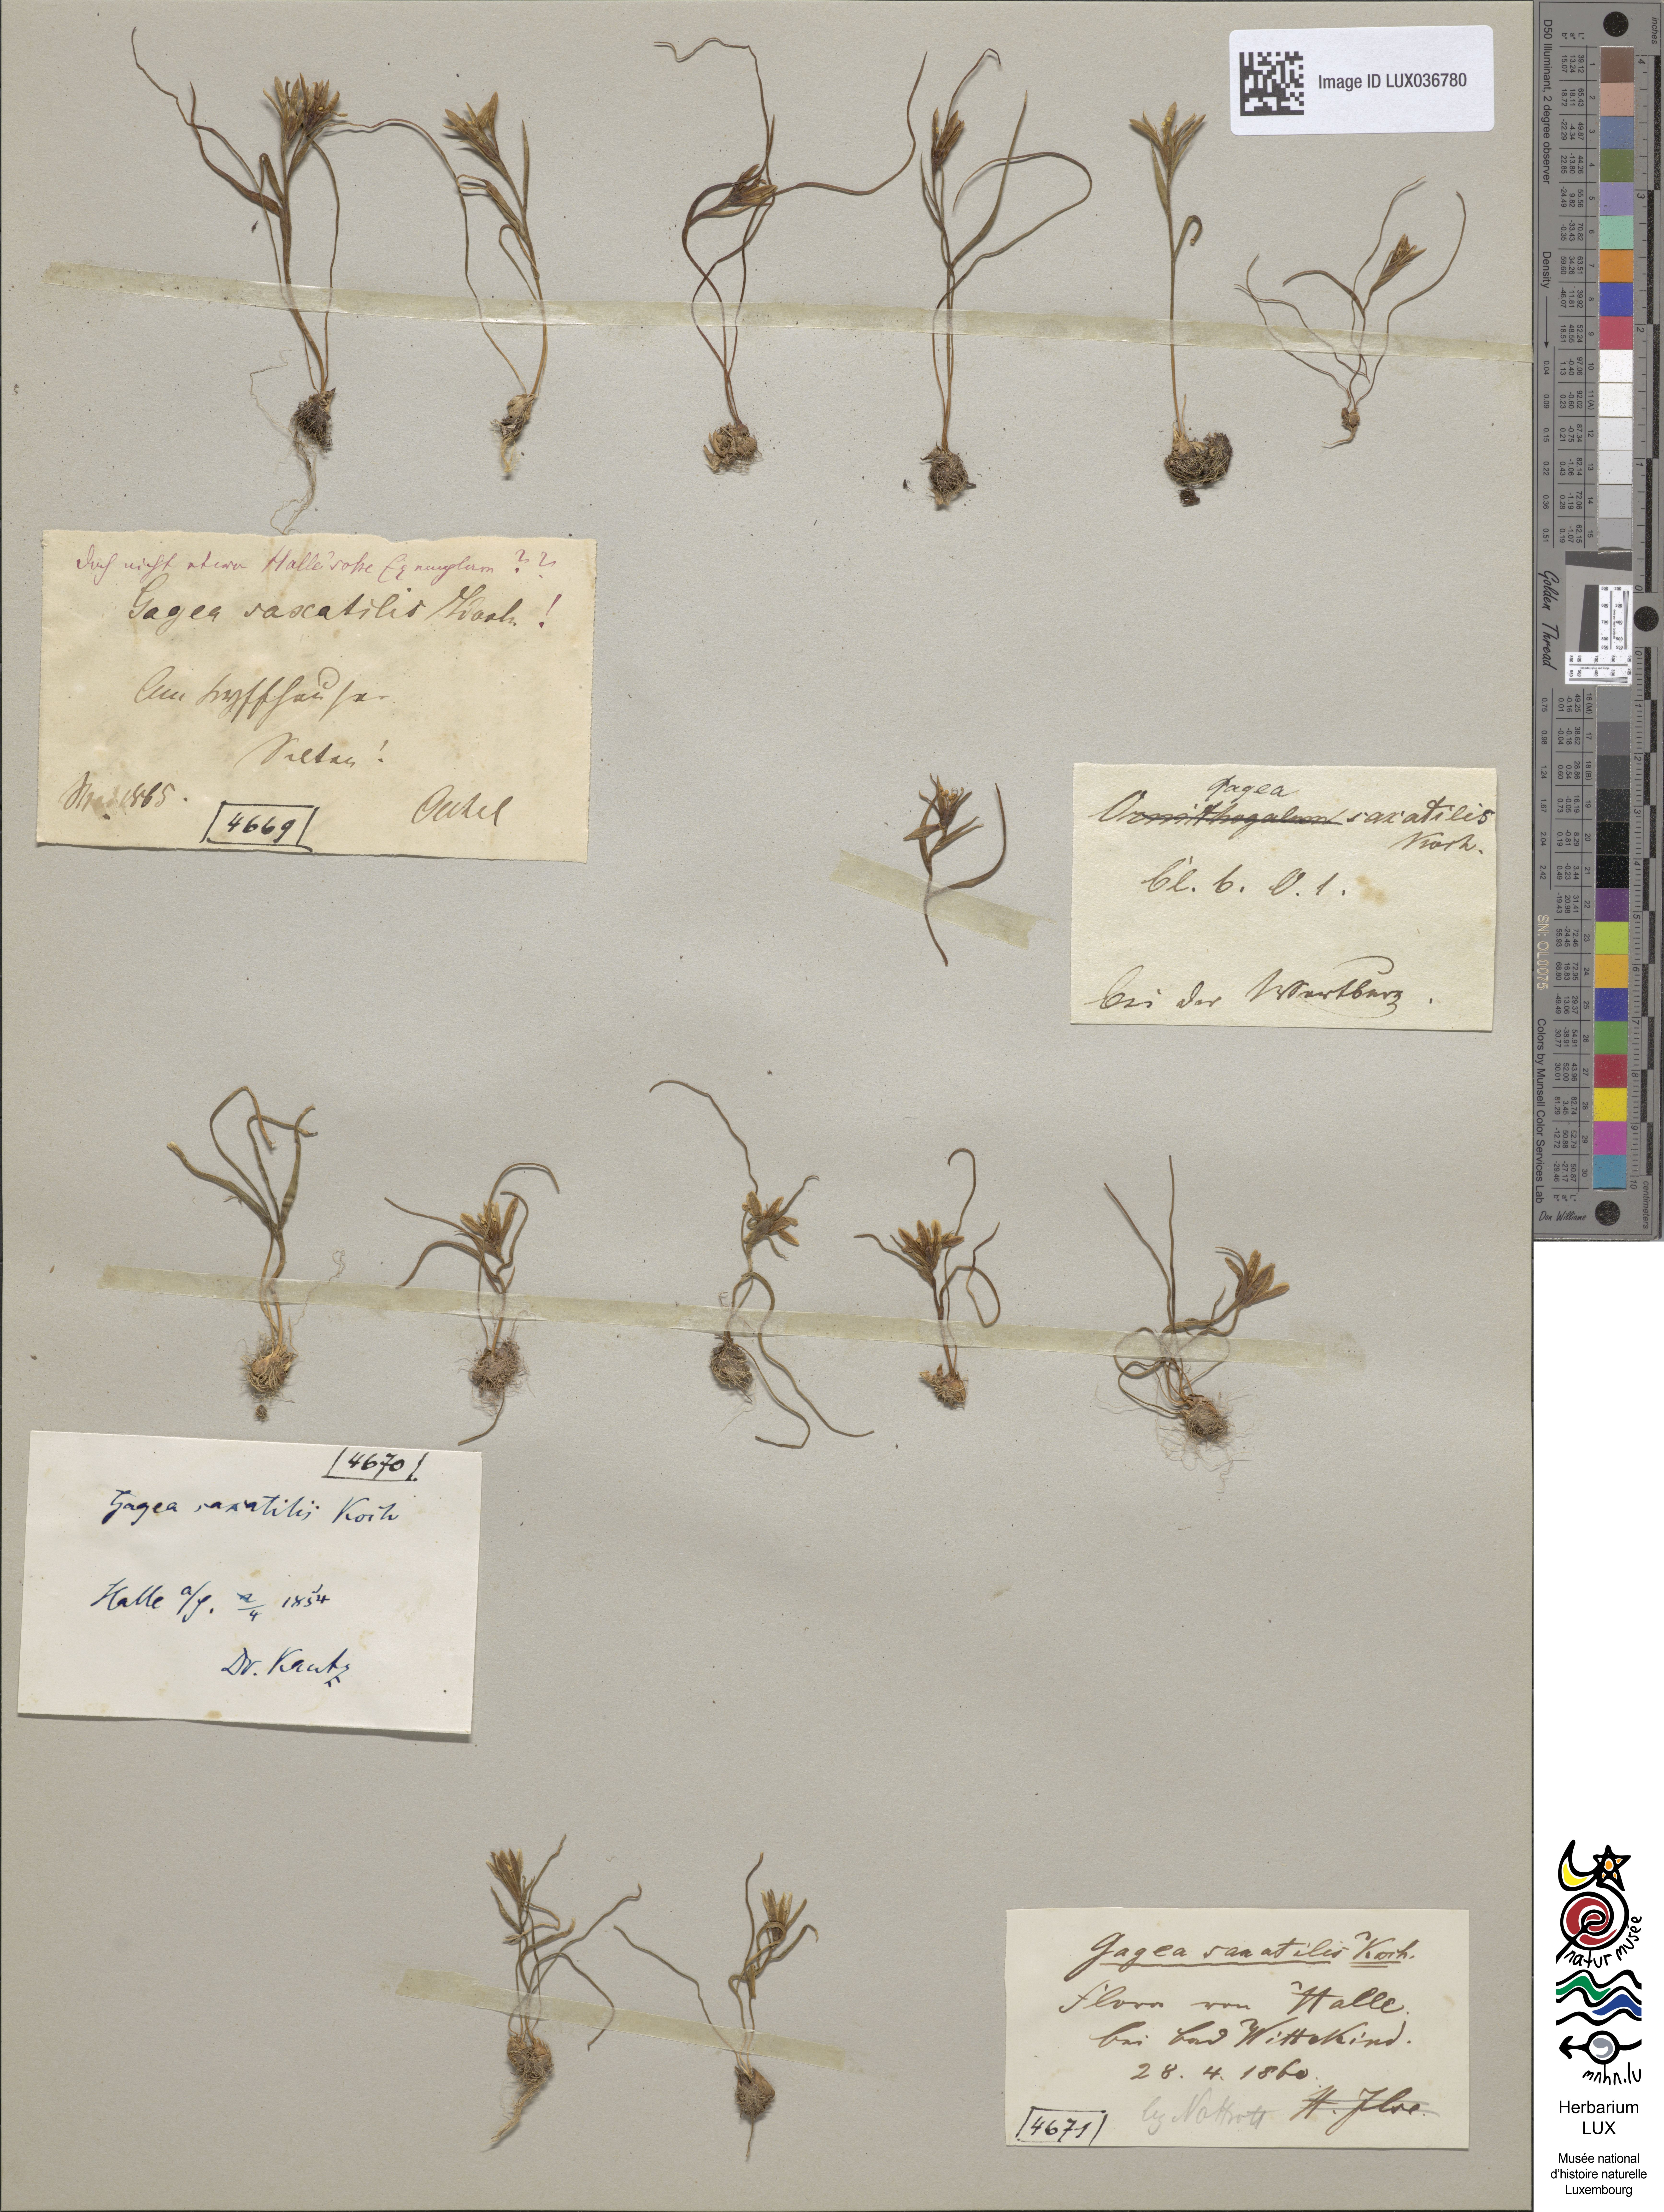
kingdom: Plantae
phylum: Tracheophyta
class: Liliopsida
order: Liliales
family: Liliaceae
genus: Gagea
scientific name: Gagea bohemica
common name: Early star-of-bethlehem
